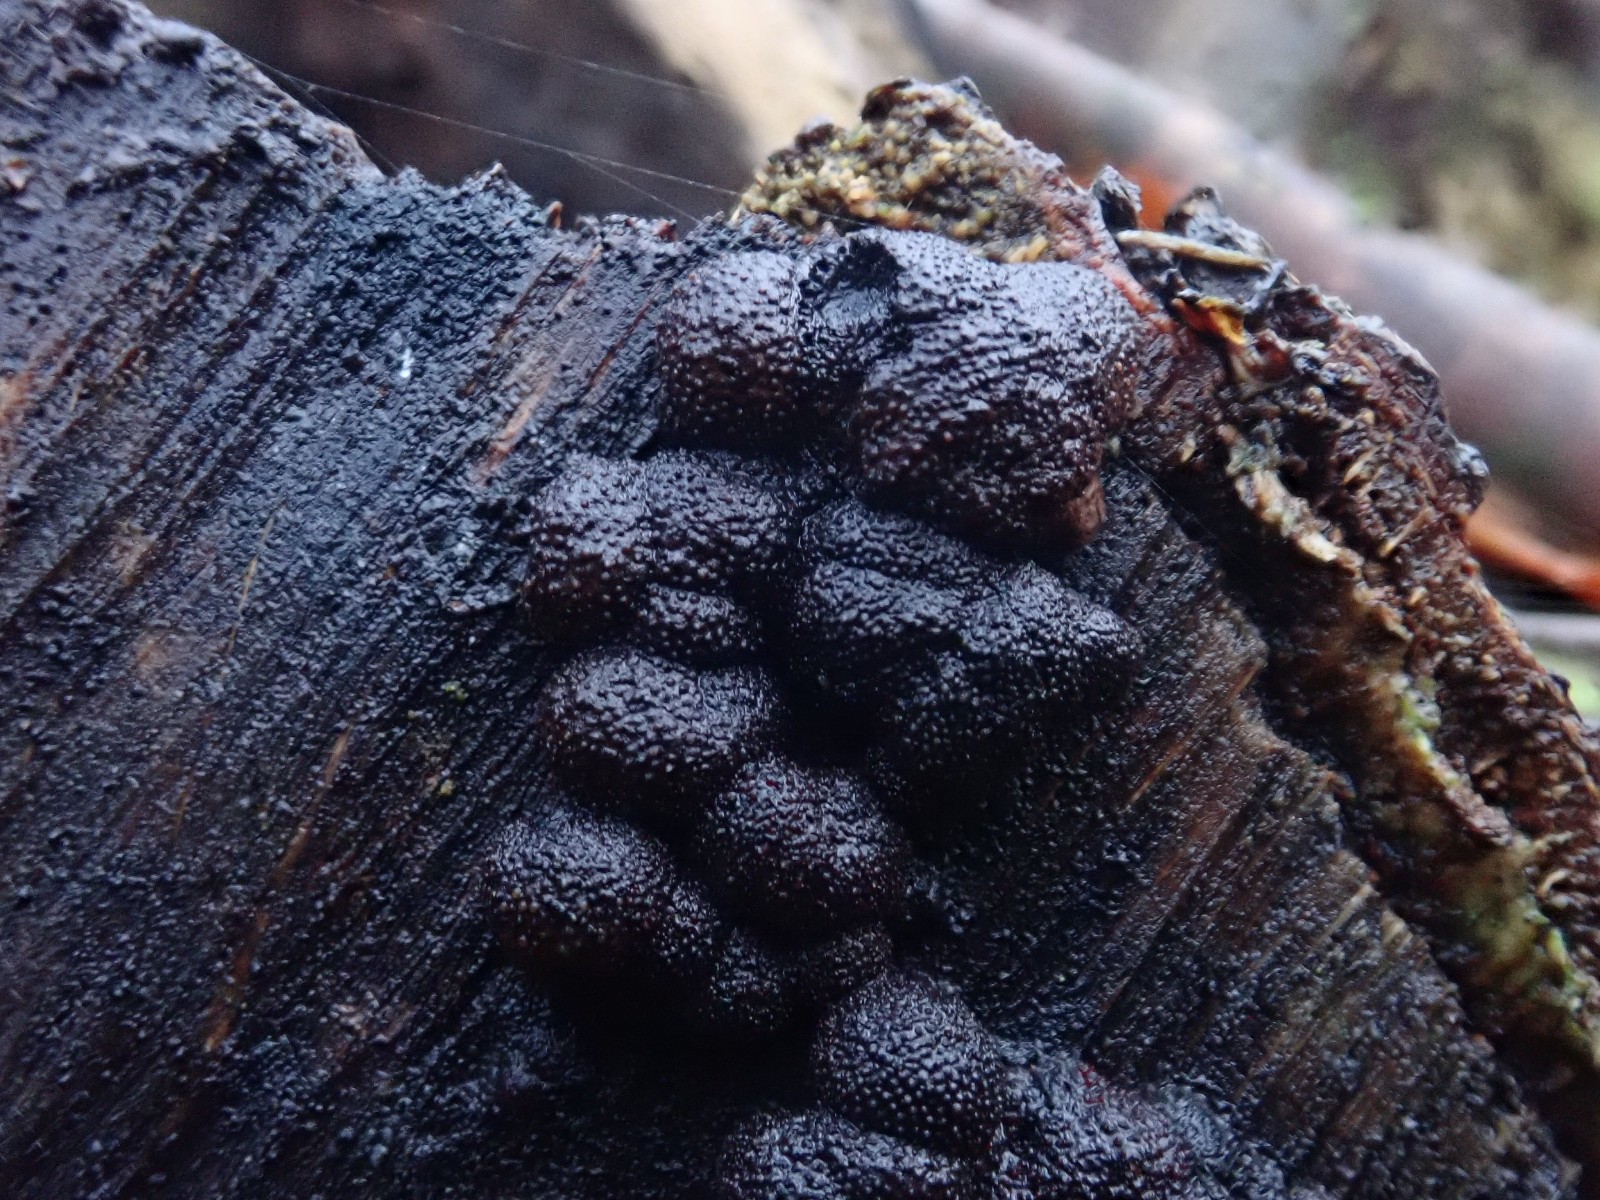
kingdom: Fungi
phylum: Ascomycota
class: Sordariomycetes
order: Xylariales
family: Hypoxylaceae
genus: Hypoxylon
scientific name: Hypoxylon fragiforme
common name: kuljordbær
